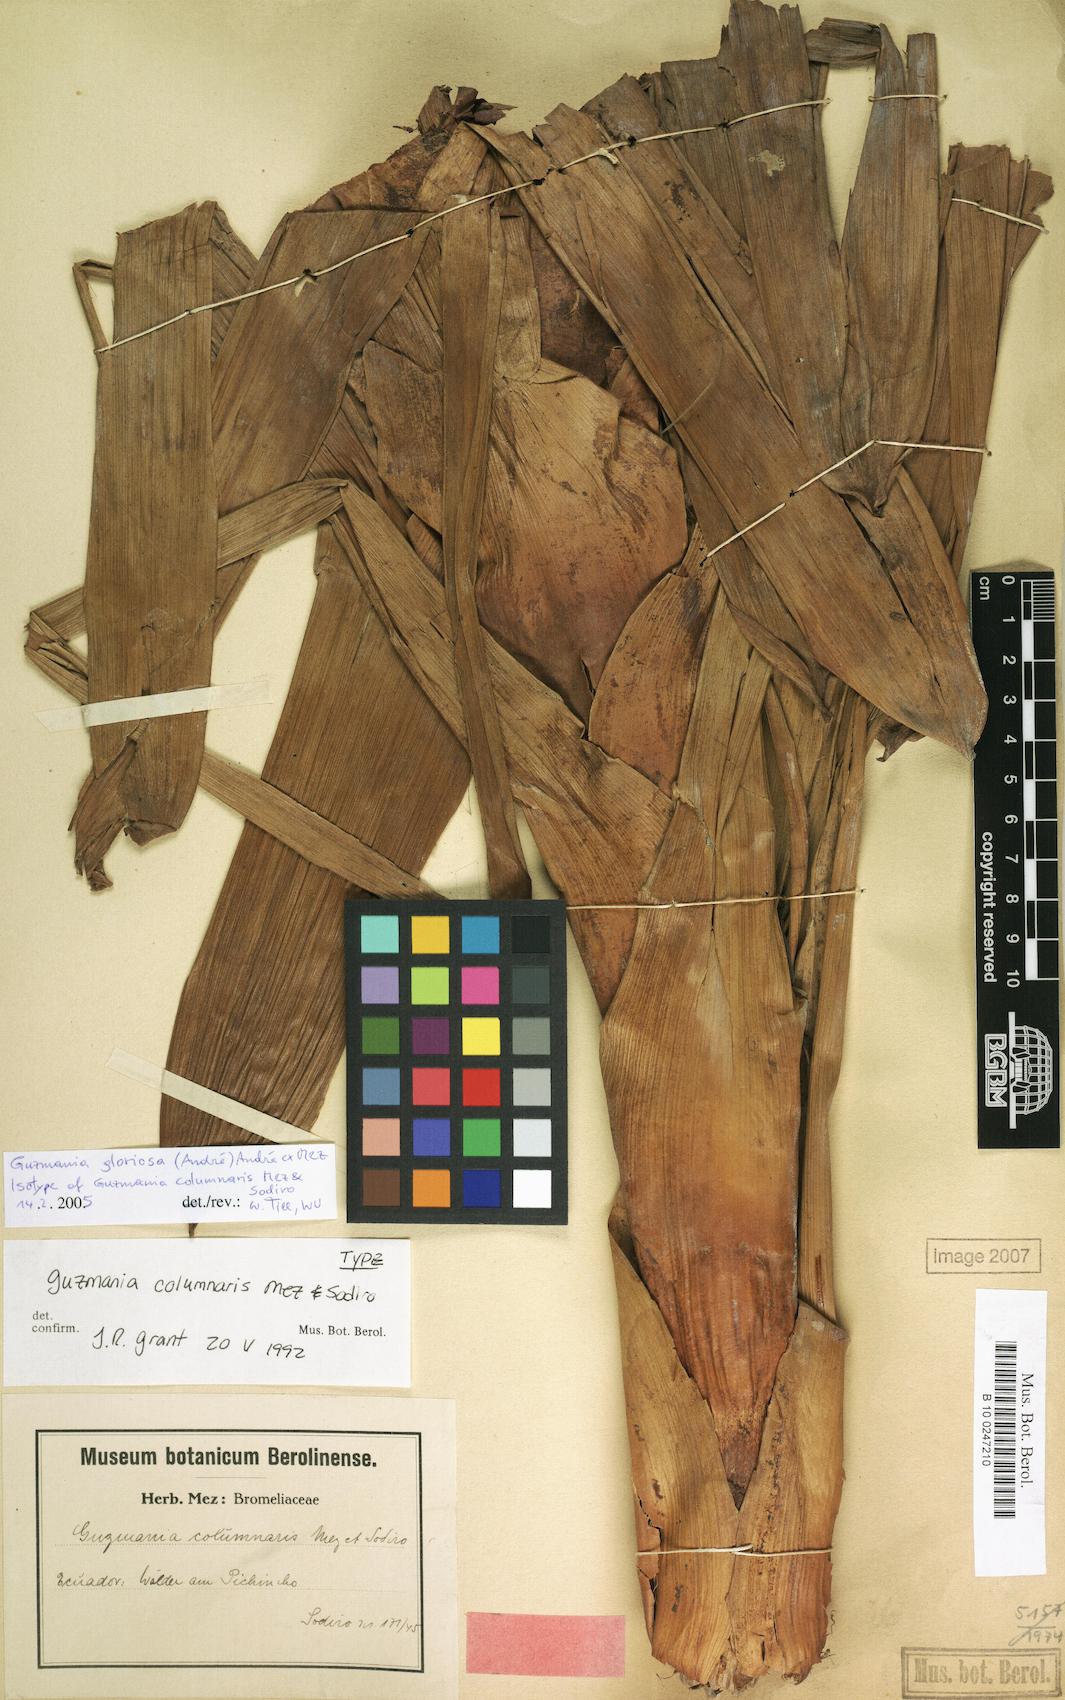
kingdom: Plantae
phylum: Tracheophyta
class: Liliopsida
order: Poales
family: Bromeliaceae
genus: Guzmania
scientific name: Guzmania gloriosa
